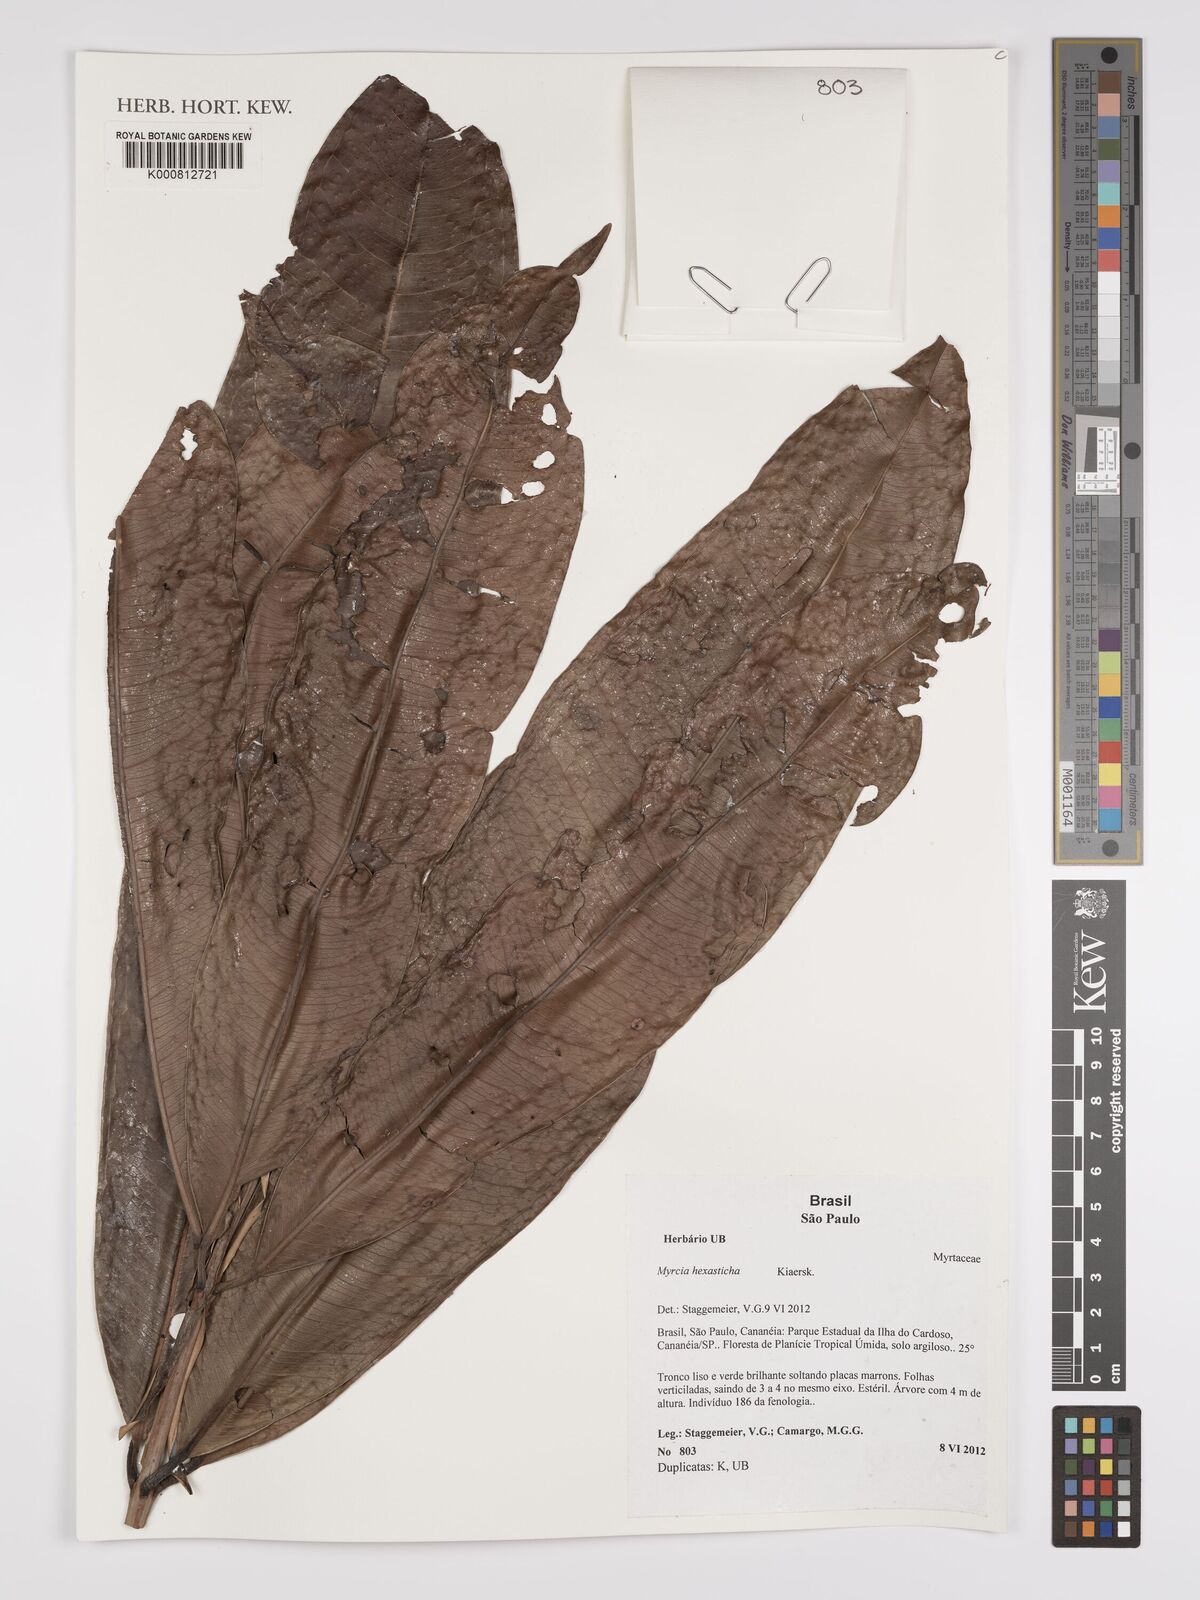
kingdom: Plantae
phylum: Tracheophyta
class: Magnoliopsida
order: Myrtales
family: Myrtaceae
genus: Myrcia
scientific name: Myrcia hexasticha
